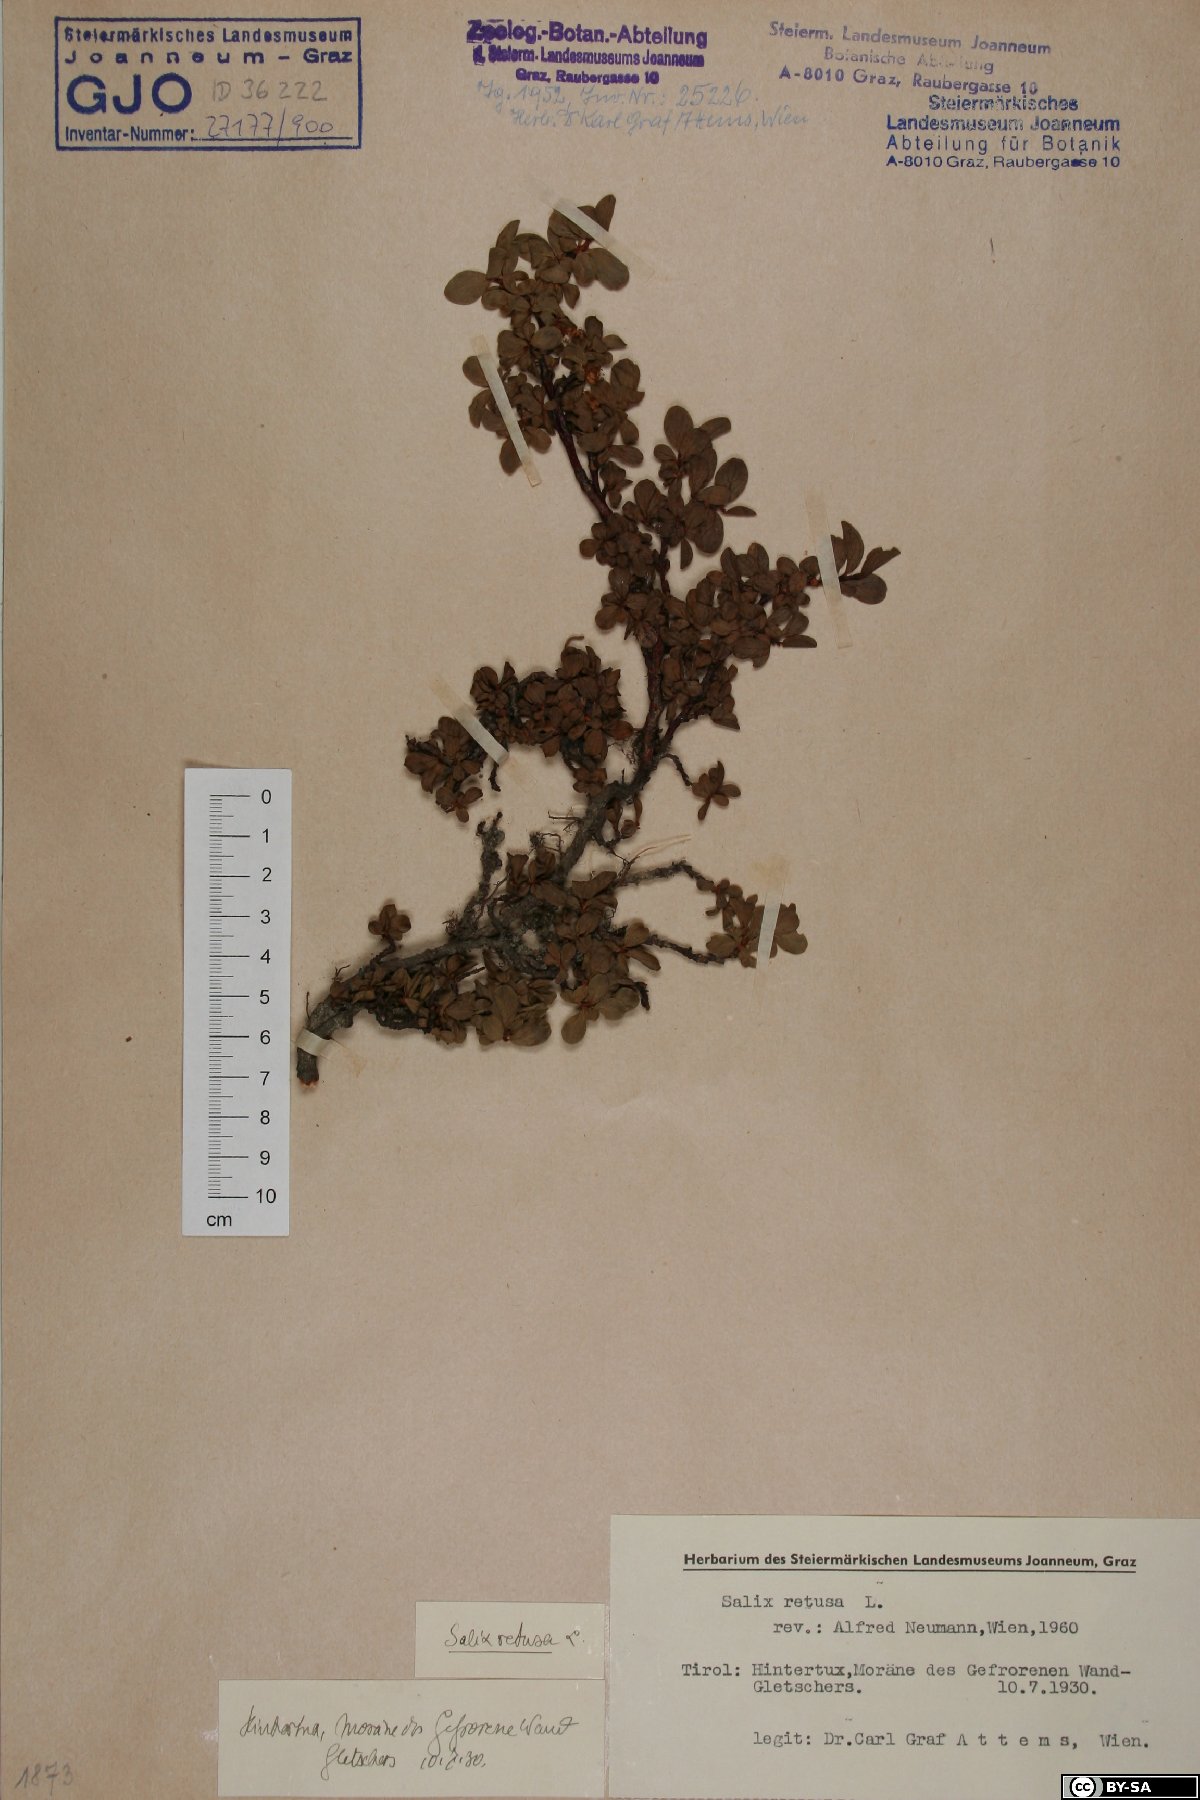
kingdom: Plantae
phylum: Tracheophyta
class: Magnoliopsida
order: Malpighiales
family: Salicaceae
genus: Salix
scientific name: Salix retusa
